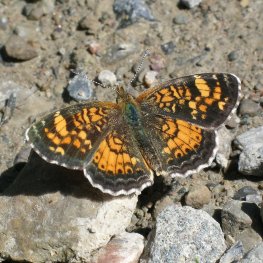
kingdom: Animalia
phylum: Arthropoda
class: Insecta
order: Lepidoptera
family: Nymphalidae
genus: Phyciodes
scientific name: Phyciodes batesii
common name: Tawny Crescent
